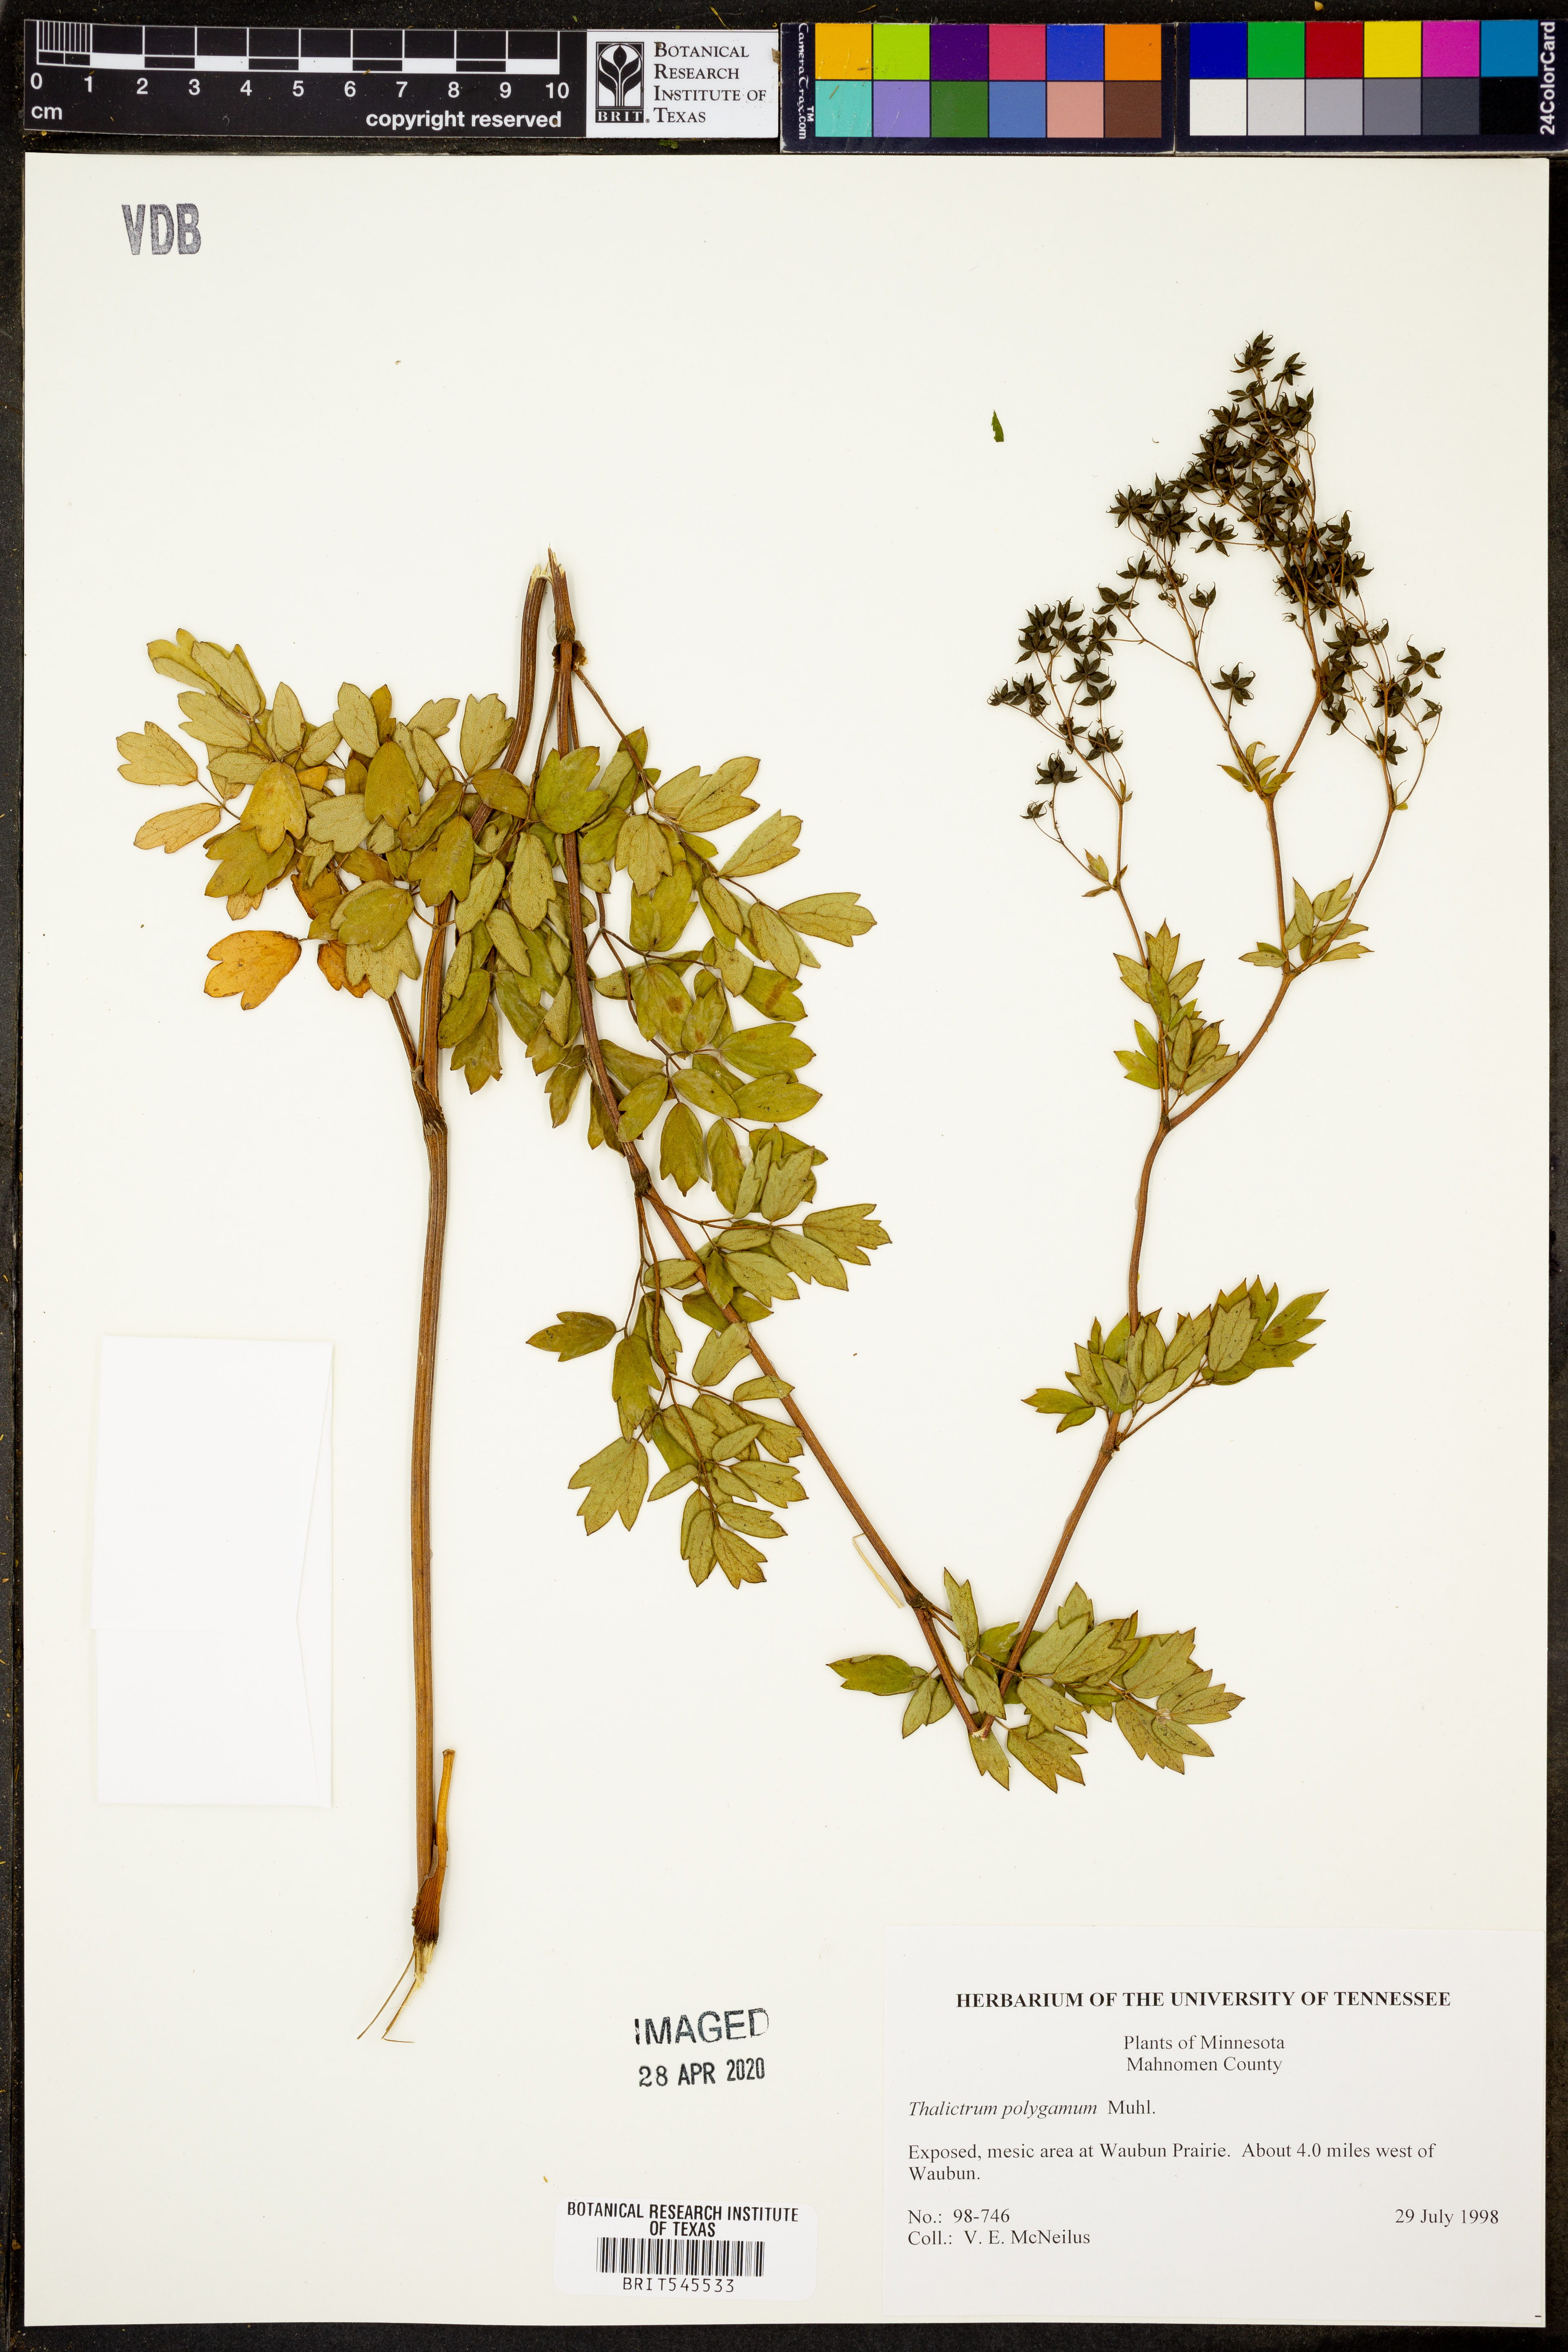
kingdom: Plantae
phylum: Tracheophyta
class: Magnoliopsida
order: Ranunculales
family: Ranunculaceae
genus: Thalictrum
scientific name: Thalictrum pubescens
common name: King-of-the-meadow
